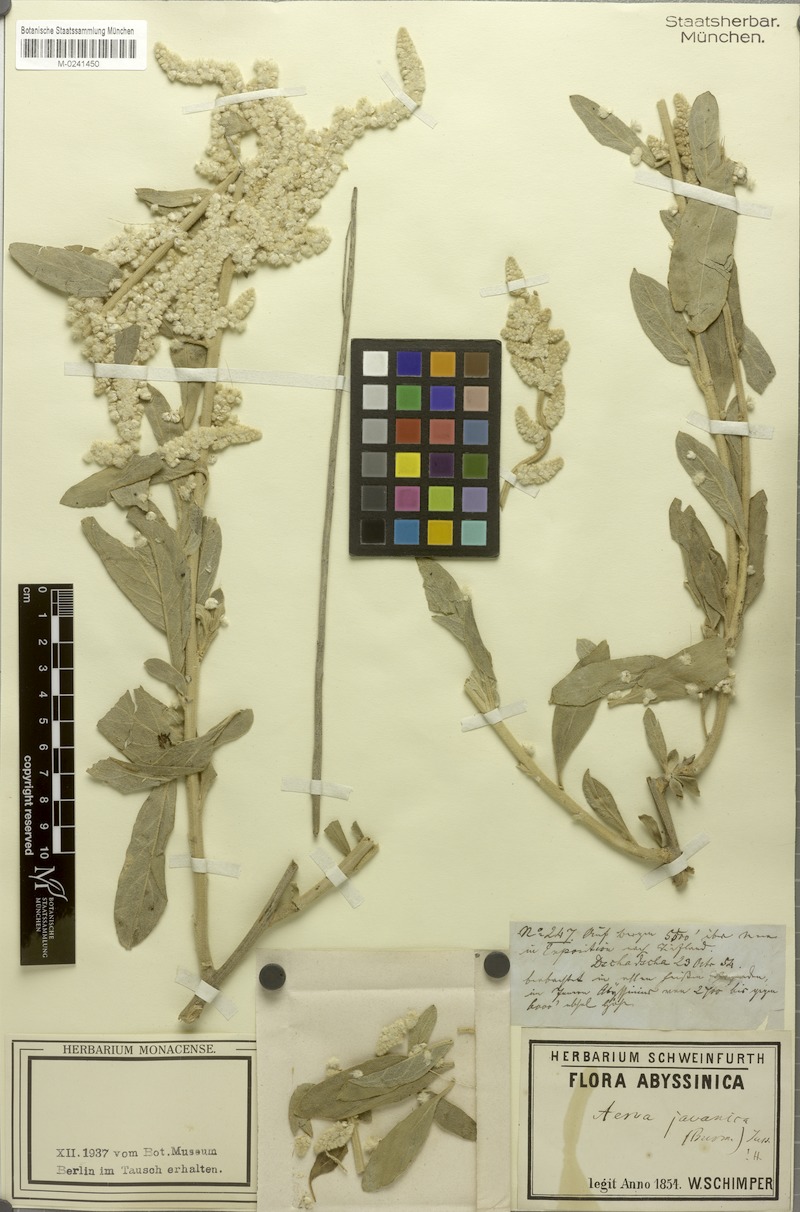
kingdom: Plantae
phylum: Tracheophyta
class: Magnoliopsida
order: Caryophyllales
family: Amaranthaceae
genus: Aerva
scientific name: Aerva javanica
